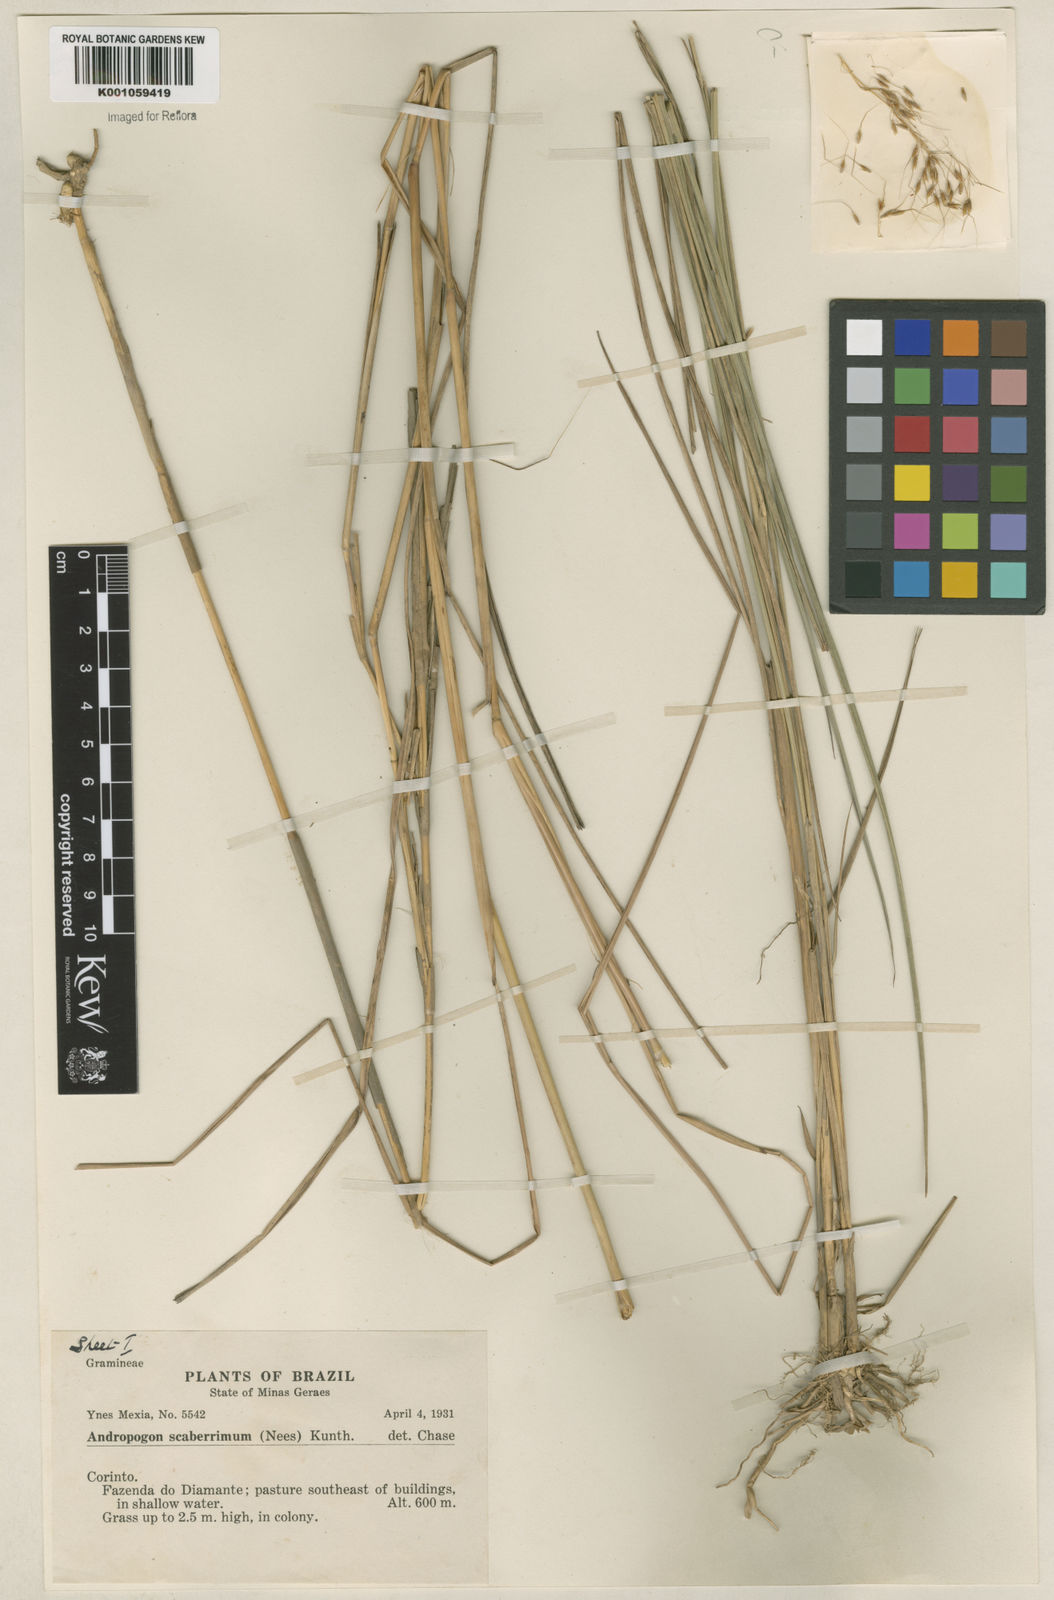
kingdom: Plantae
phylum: Tracheophyta
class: Liliopsida
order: Poales
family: Poaceae
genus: Sorghastrum
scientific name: Sorghastrum stipoides
